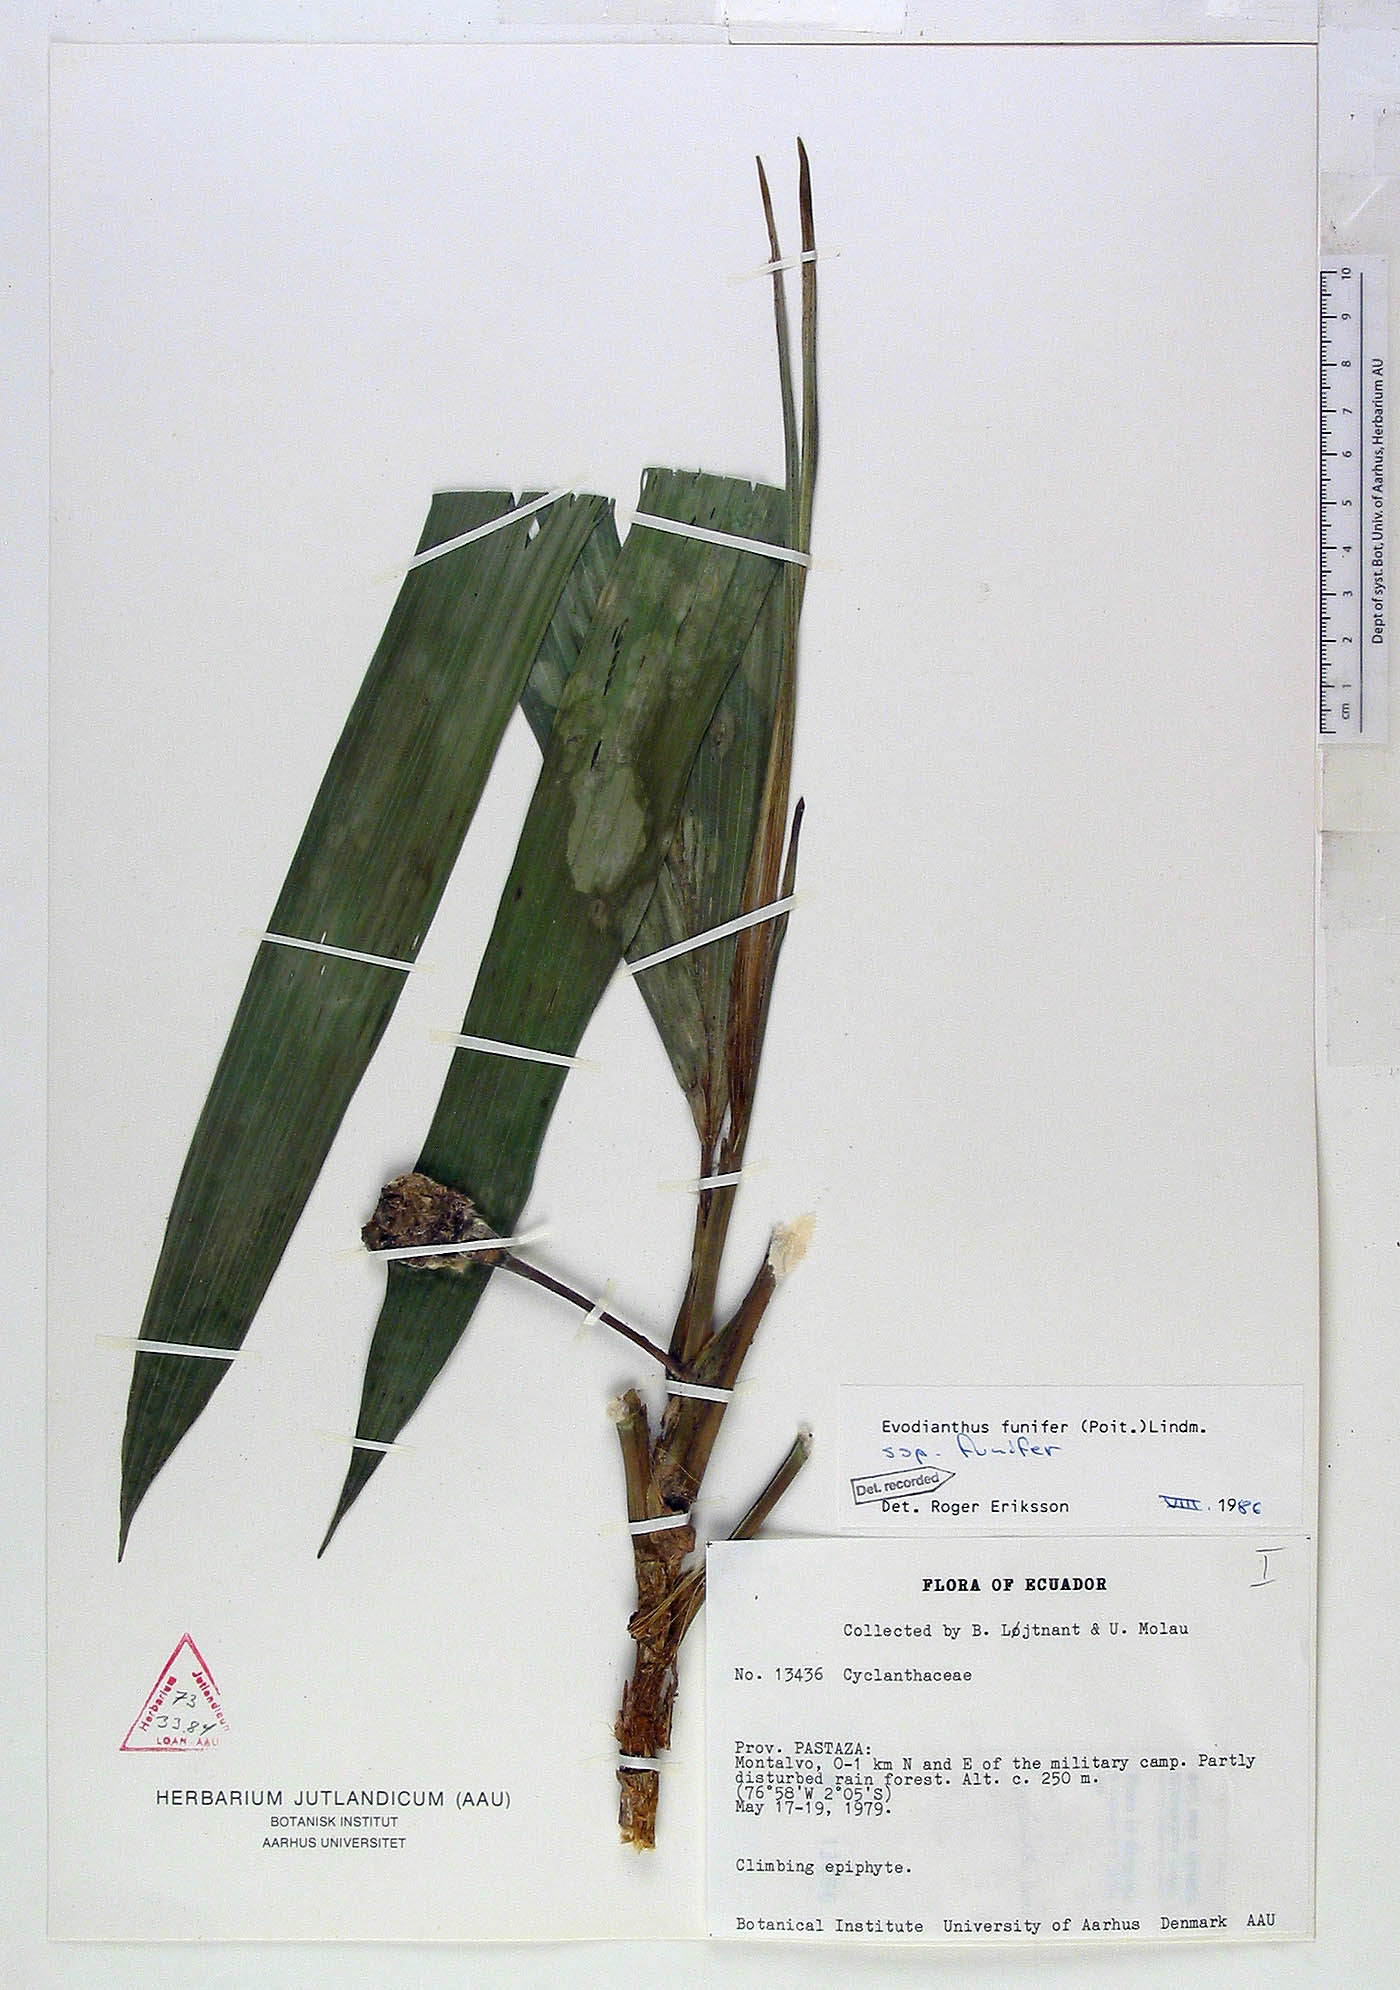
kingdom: Plantae
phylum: Tracheophyta
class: Liliopsida
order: Pandanales
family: Cyclanthaceae
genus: Evodianthus
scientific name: Evodianthus funifer
